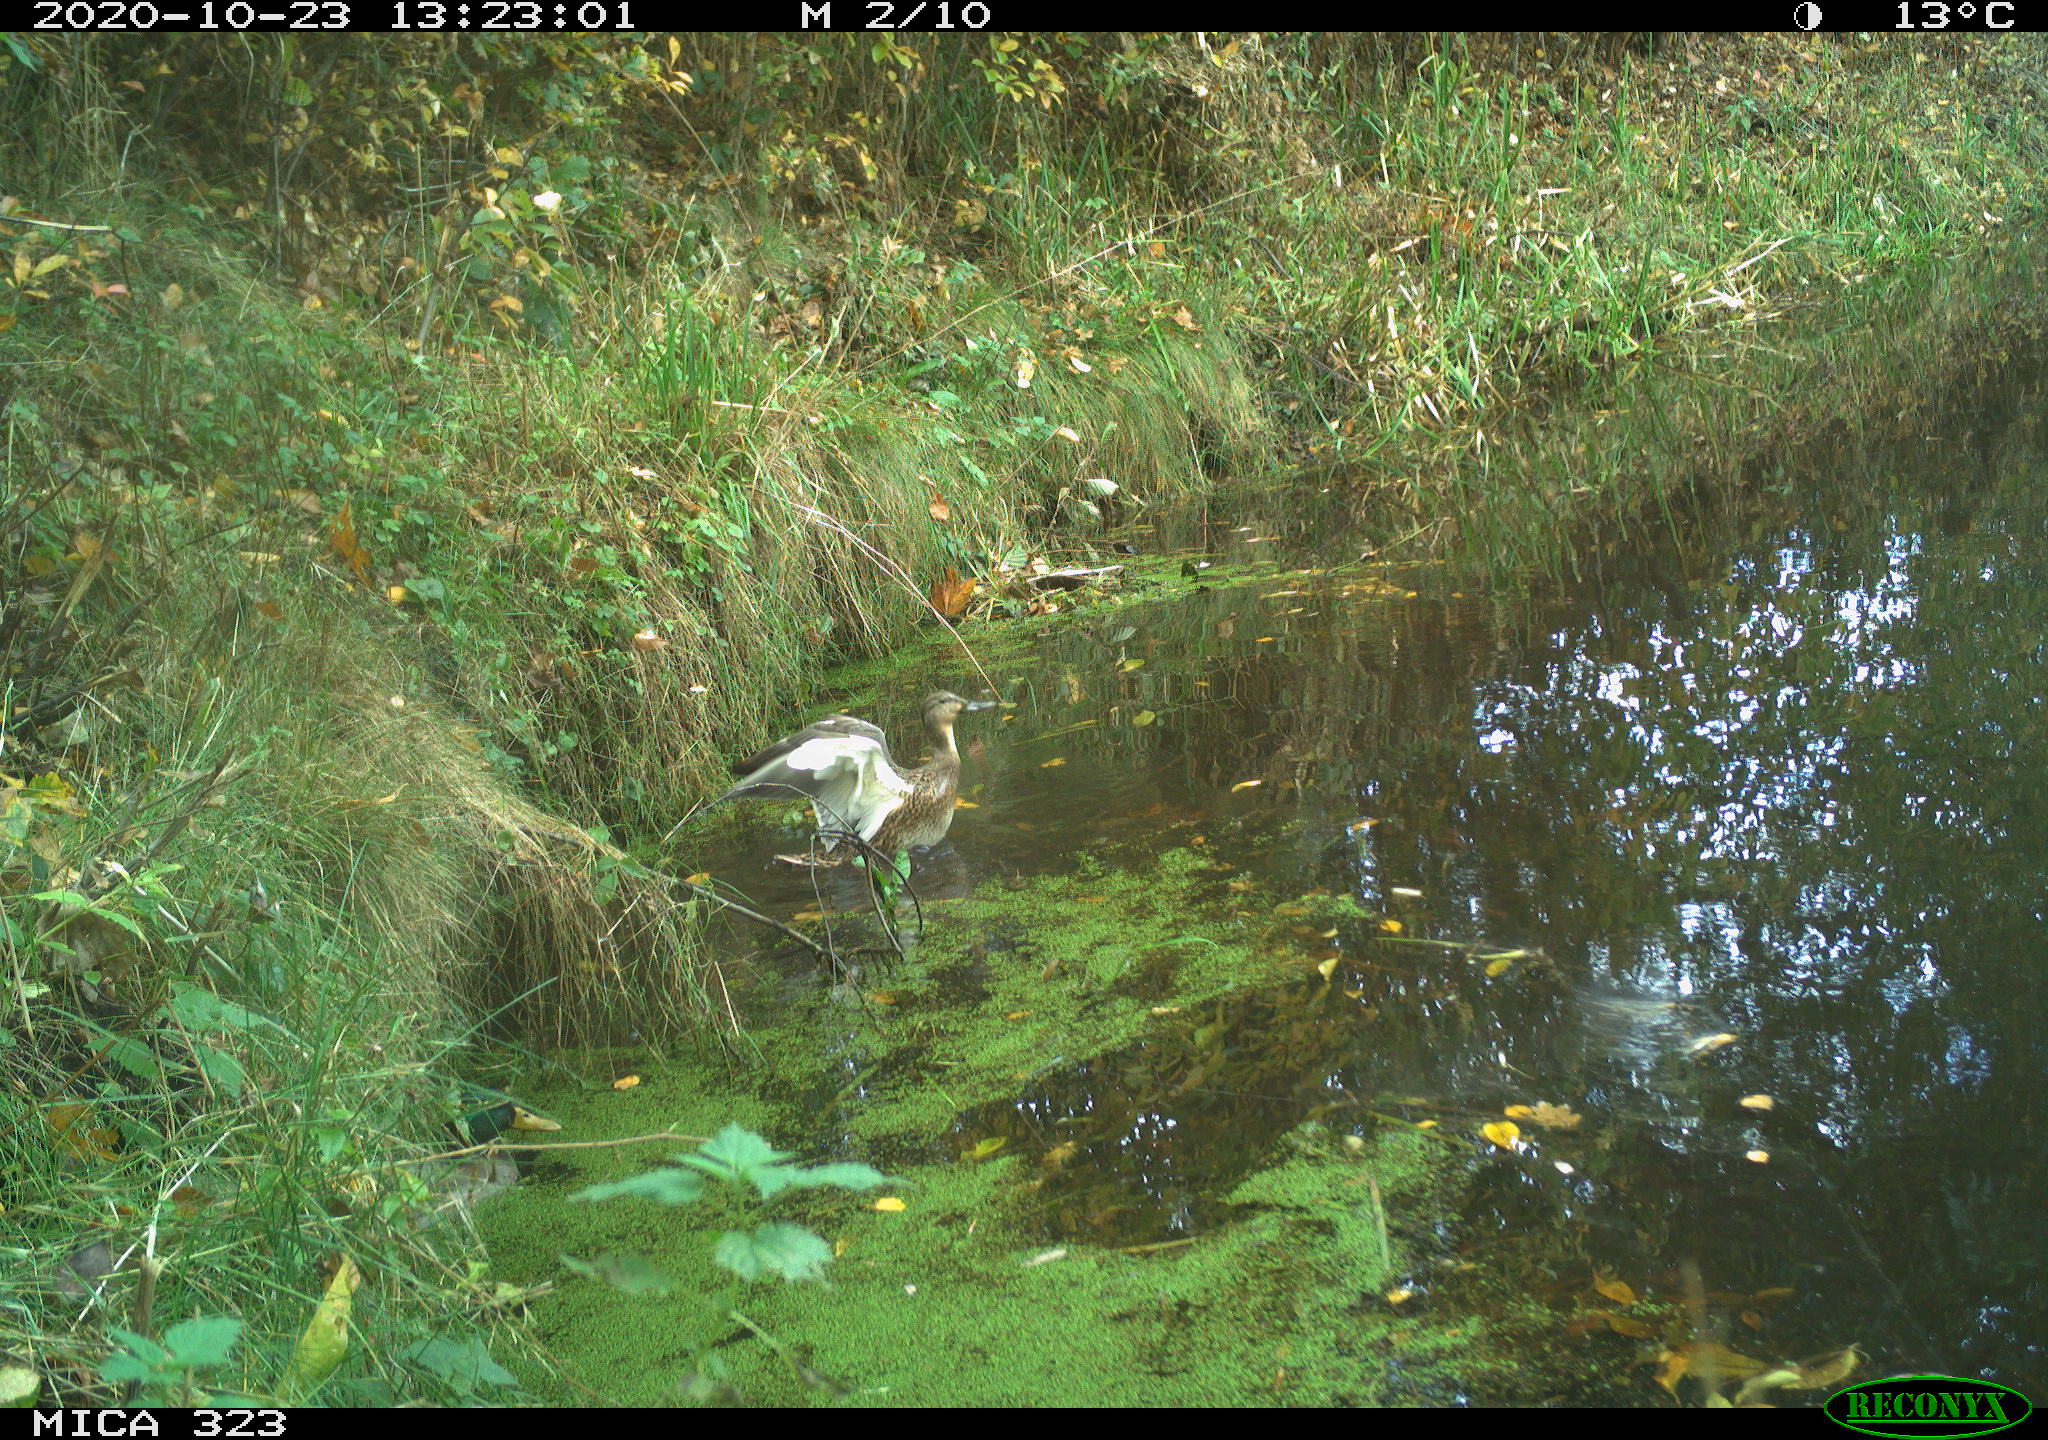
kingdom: Animalia
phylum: Chordata
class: Aves
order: Anseriformes
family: Anatidae
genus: Anas
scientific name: Anas platyrhynchos
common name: Mallard
